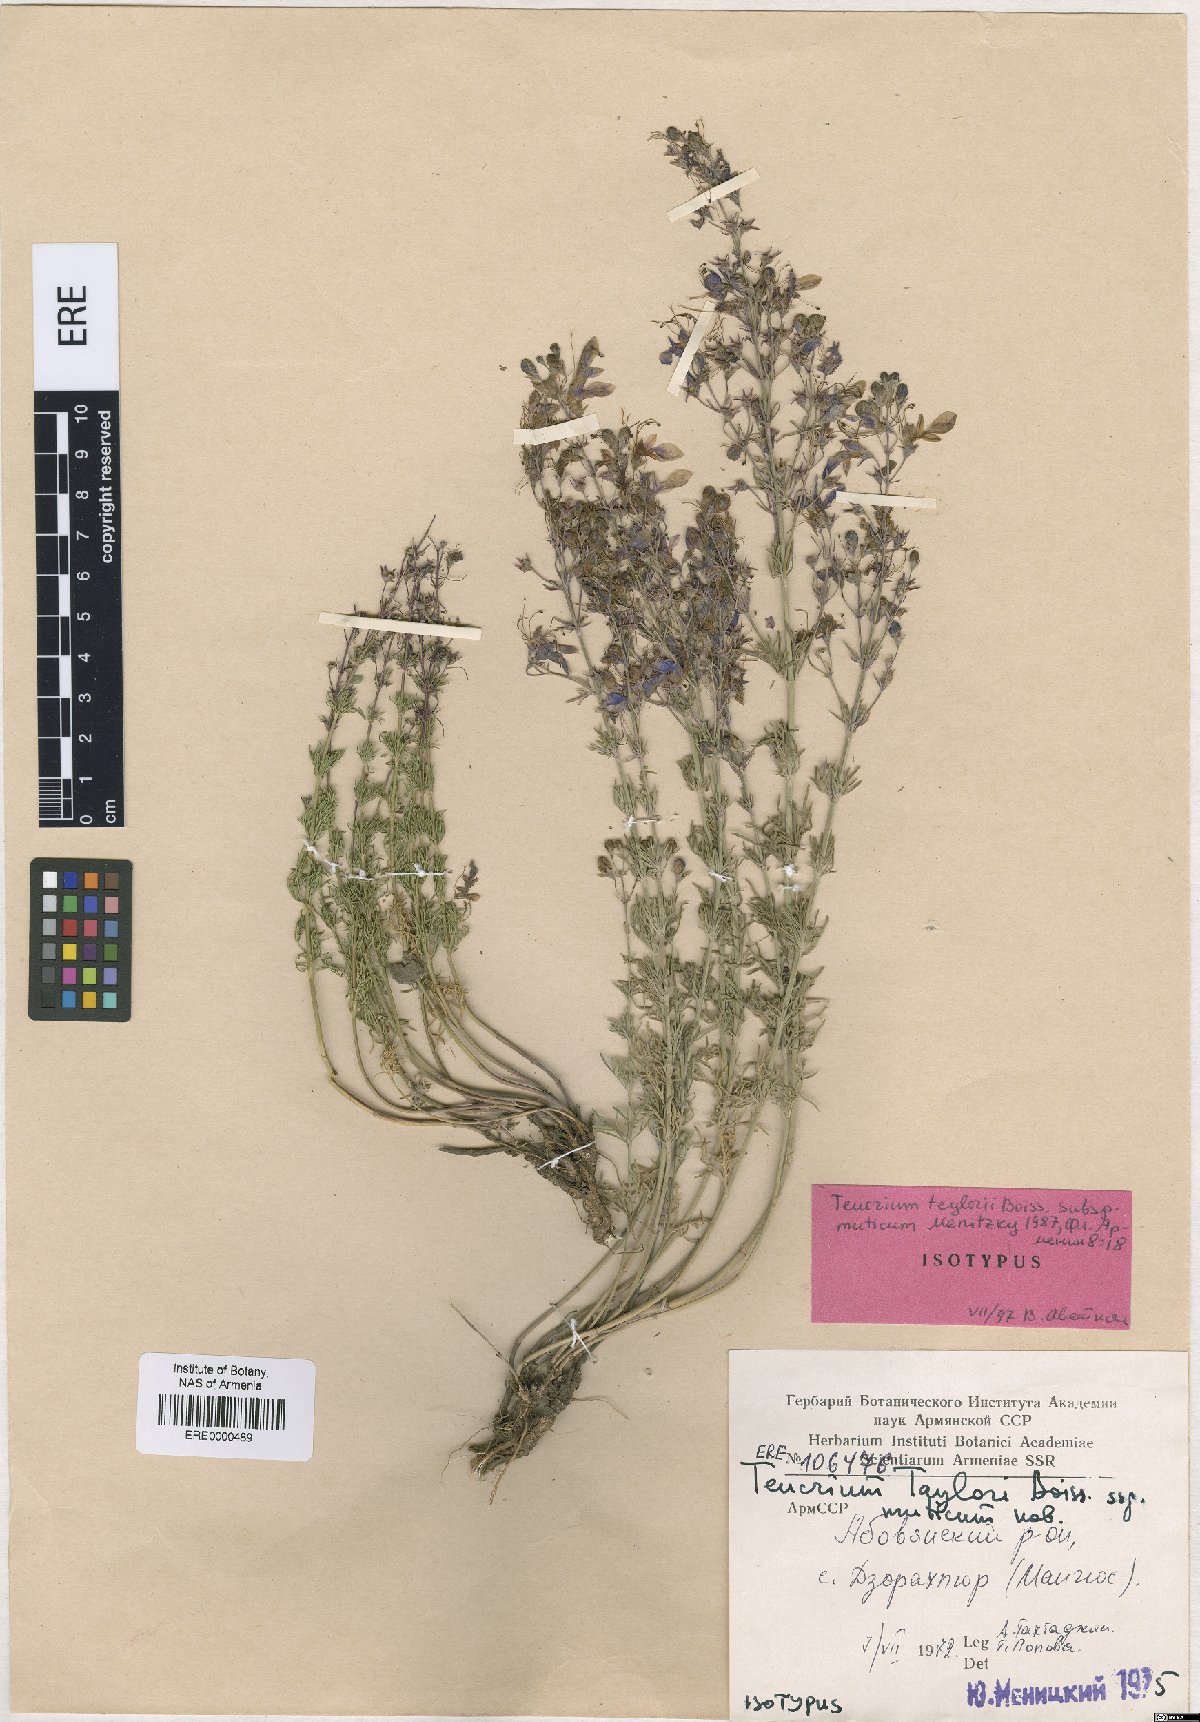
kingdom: Plantae
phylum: Tracheophyta
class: Magnoliopsida
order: Lamiales
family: Lamiaceae
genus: Teucrium
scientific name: Teucrium orientale
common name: Oriental germander
